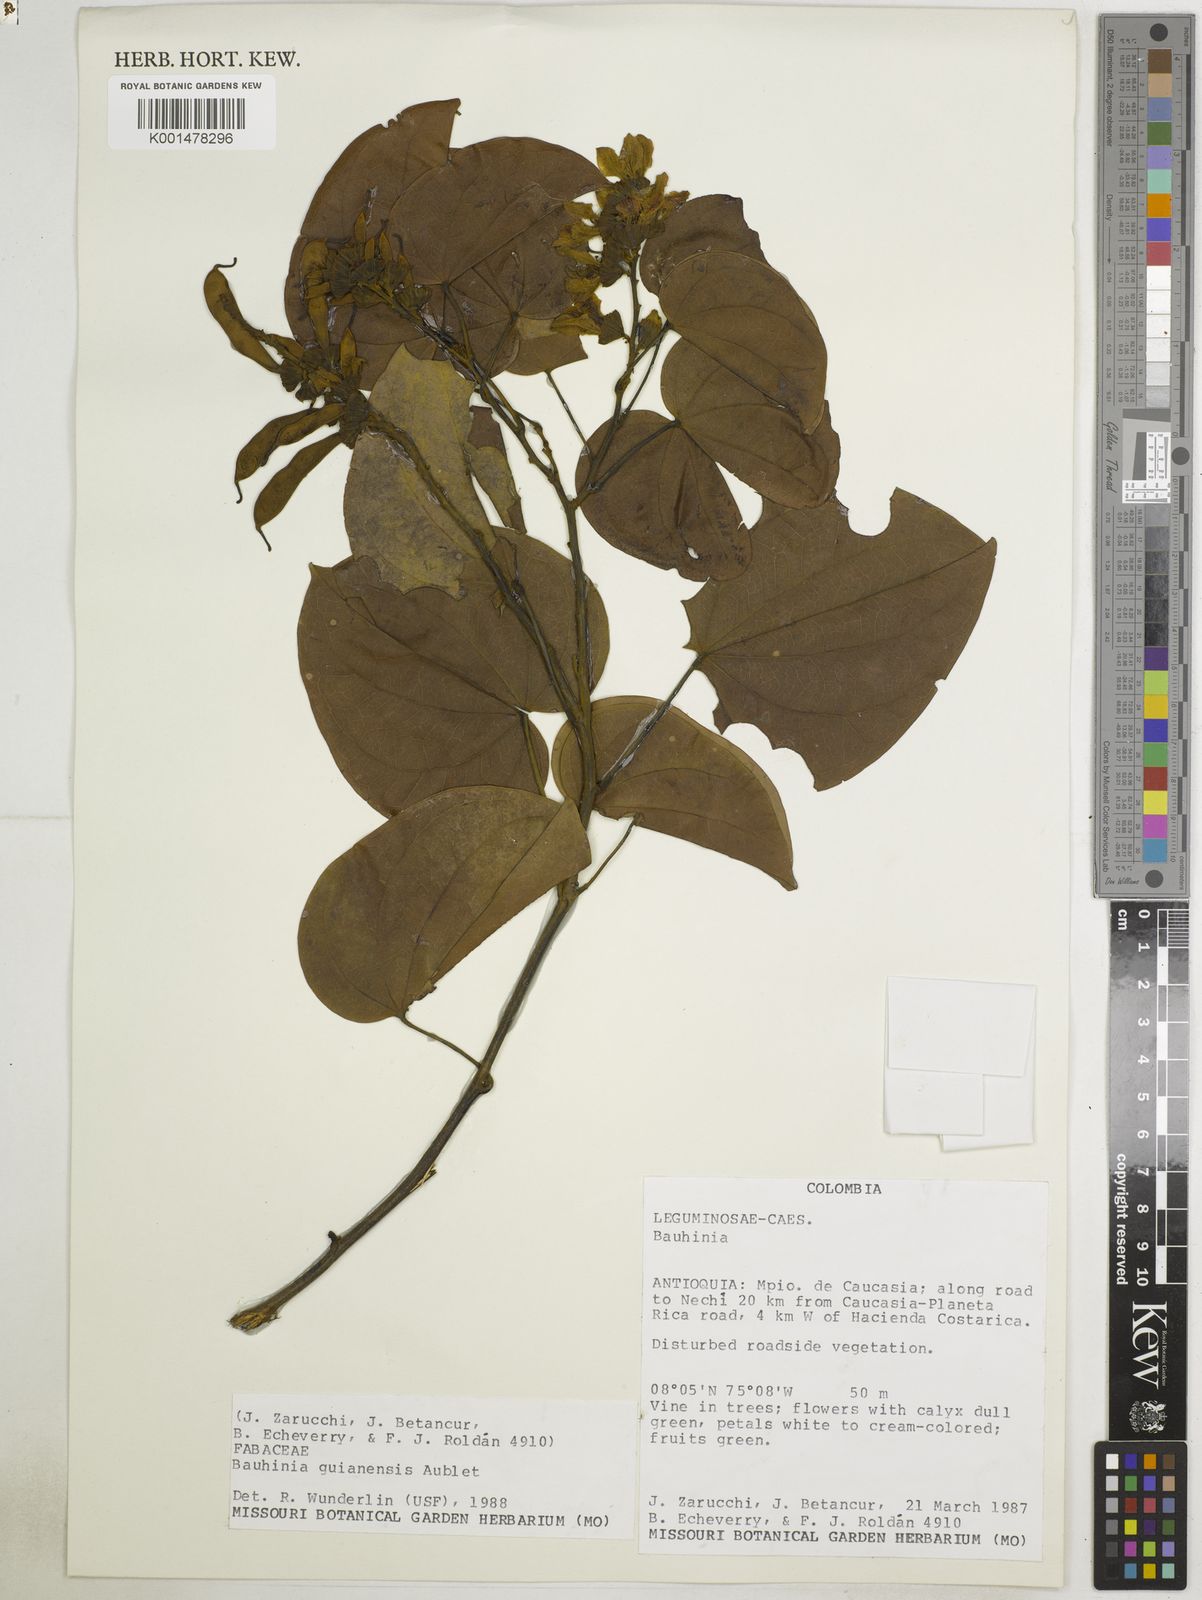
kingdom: Plantae
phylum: Tracheophyta
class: Magnoliopsida
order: Fabales
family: Fabaceae
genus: Schnella
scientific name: Schnella guianensis
